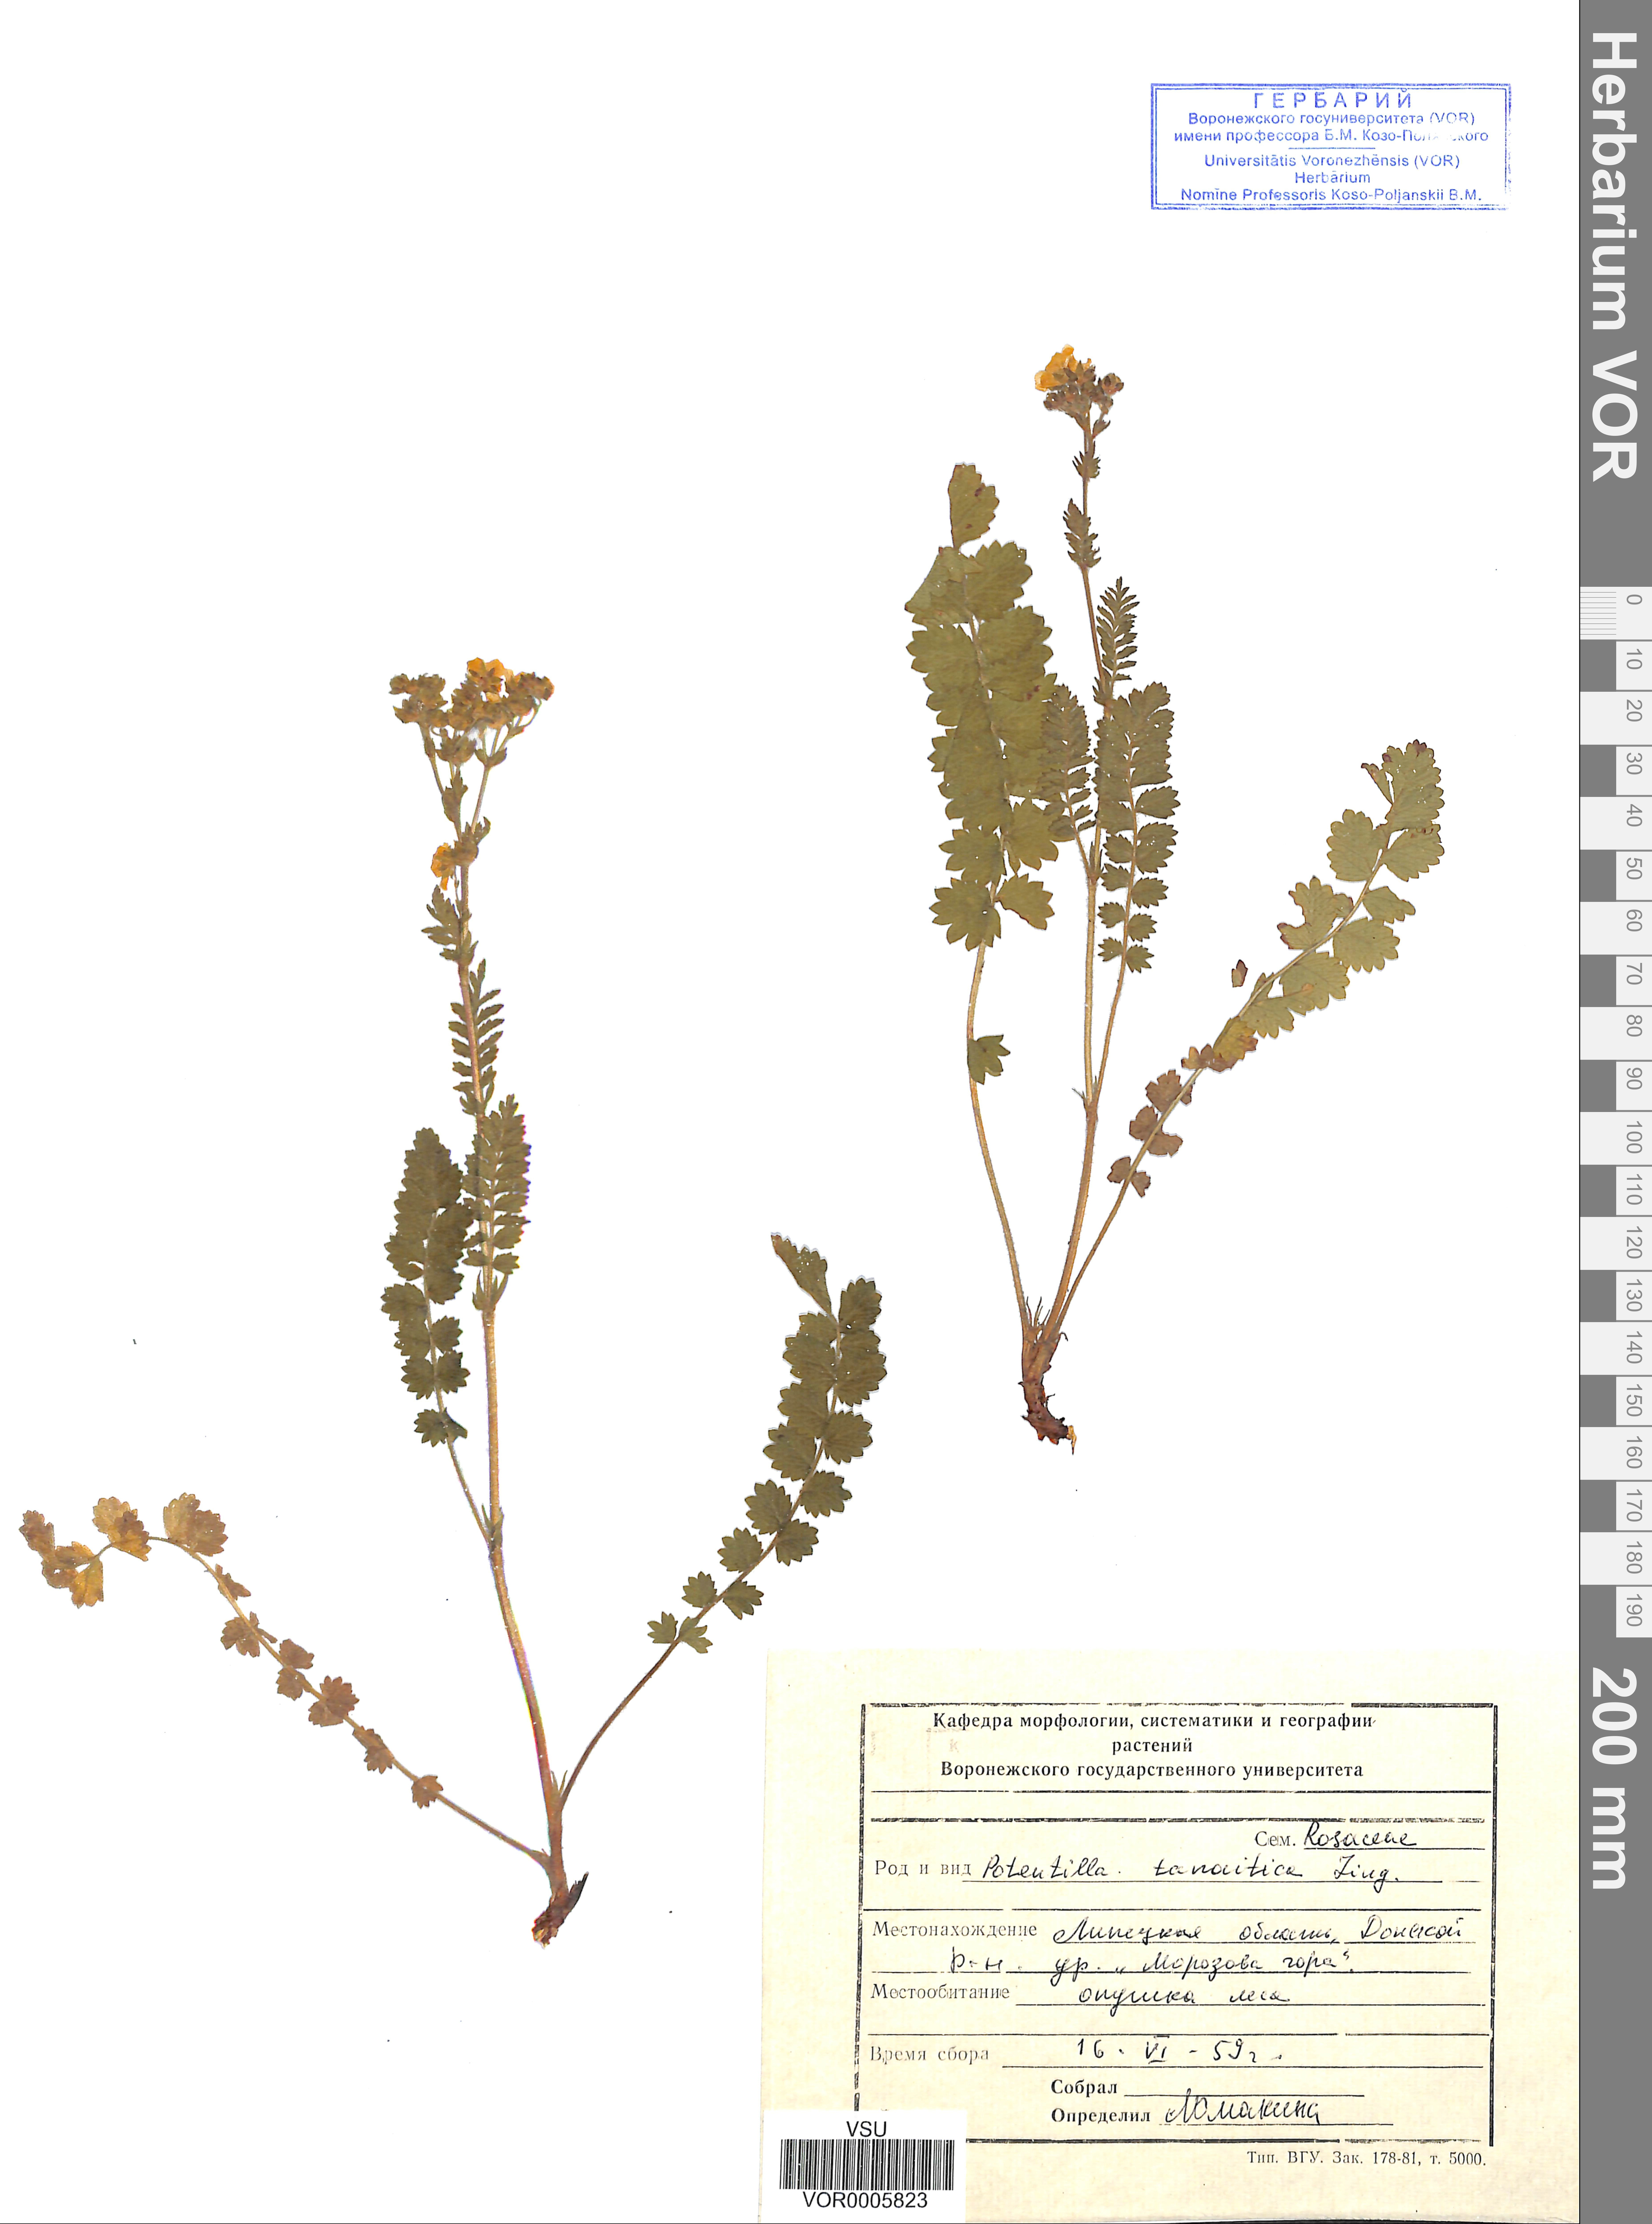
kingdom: Plantae
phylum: Tracheophyta
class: Magnoliopsida
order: Rosales
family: Rosaceae
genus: Potentilla
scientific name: Potentilla tanaitica
